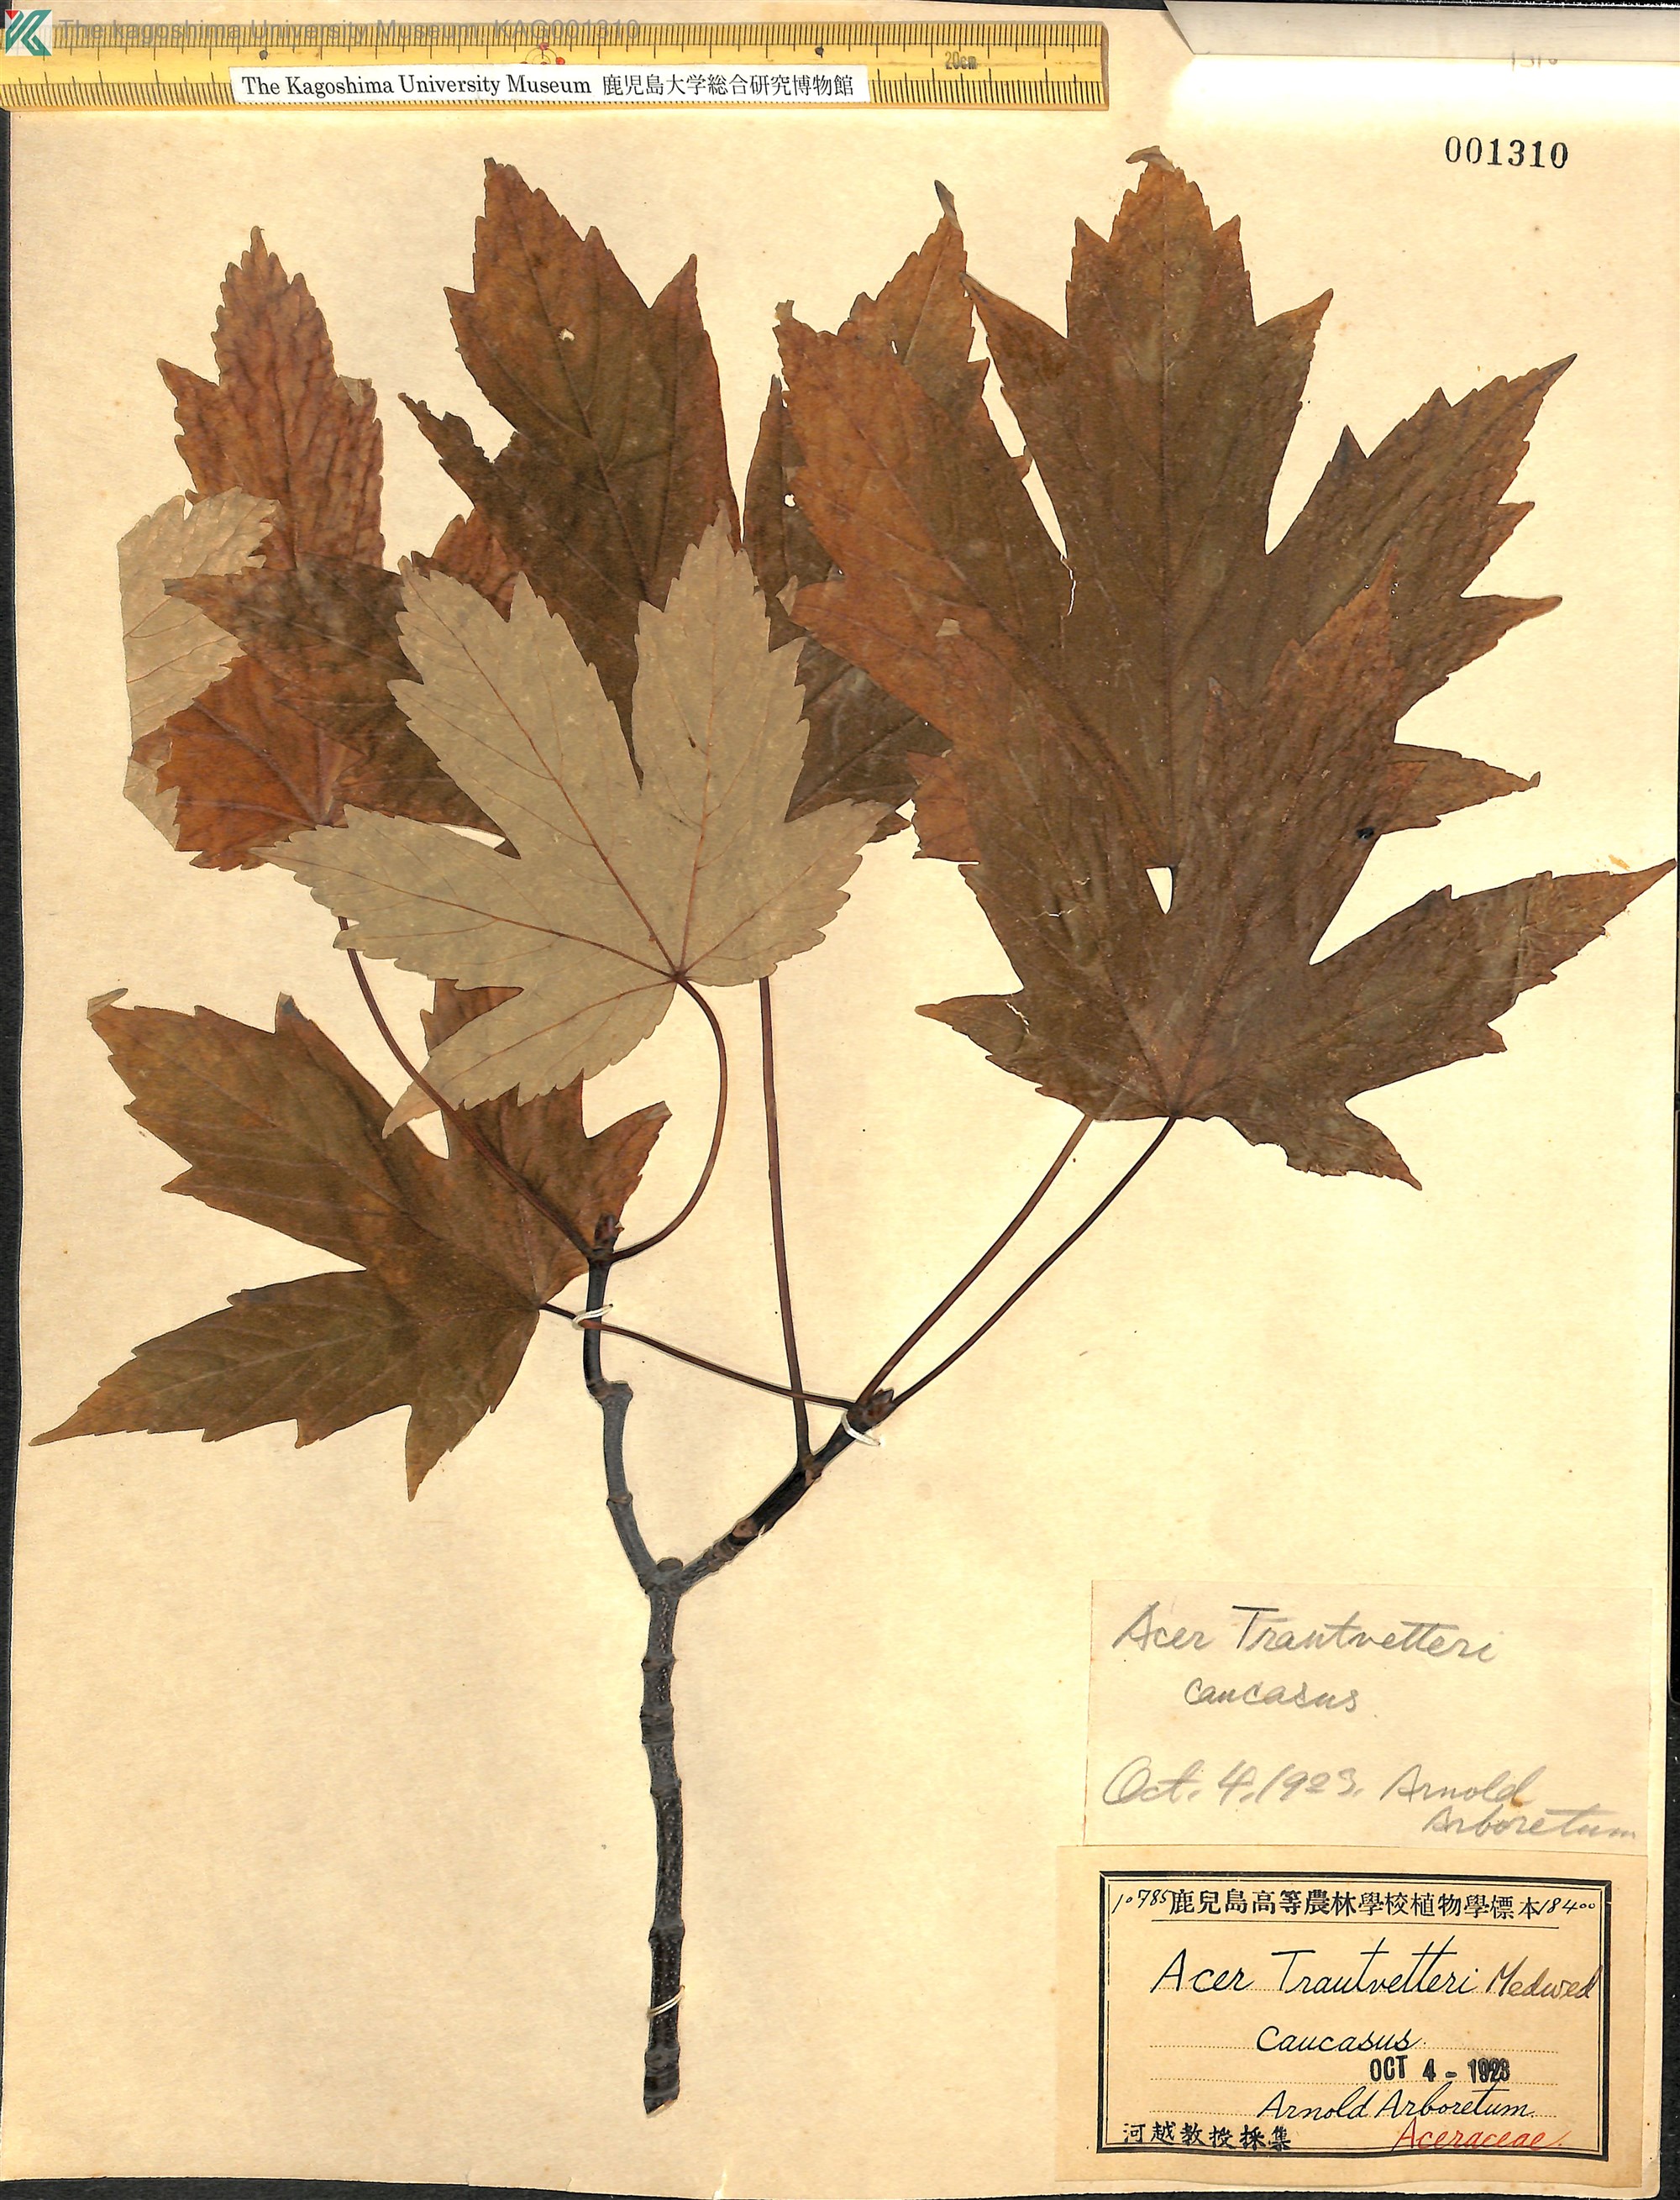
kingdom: Plantae
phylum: Tracheophyta
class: Magnoliopsida
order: Sapindales
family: Sapindaceae
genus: Acer
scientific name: Acer heldreichii
